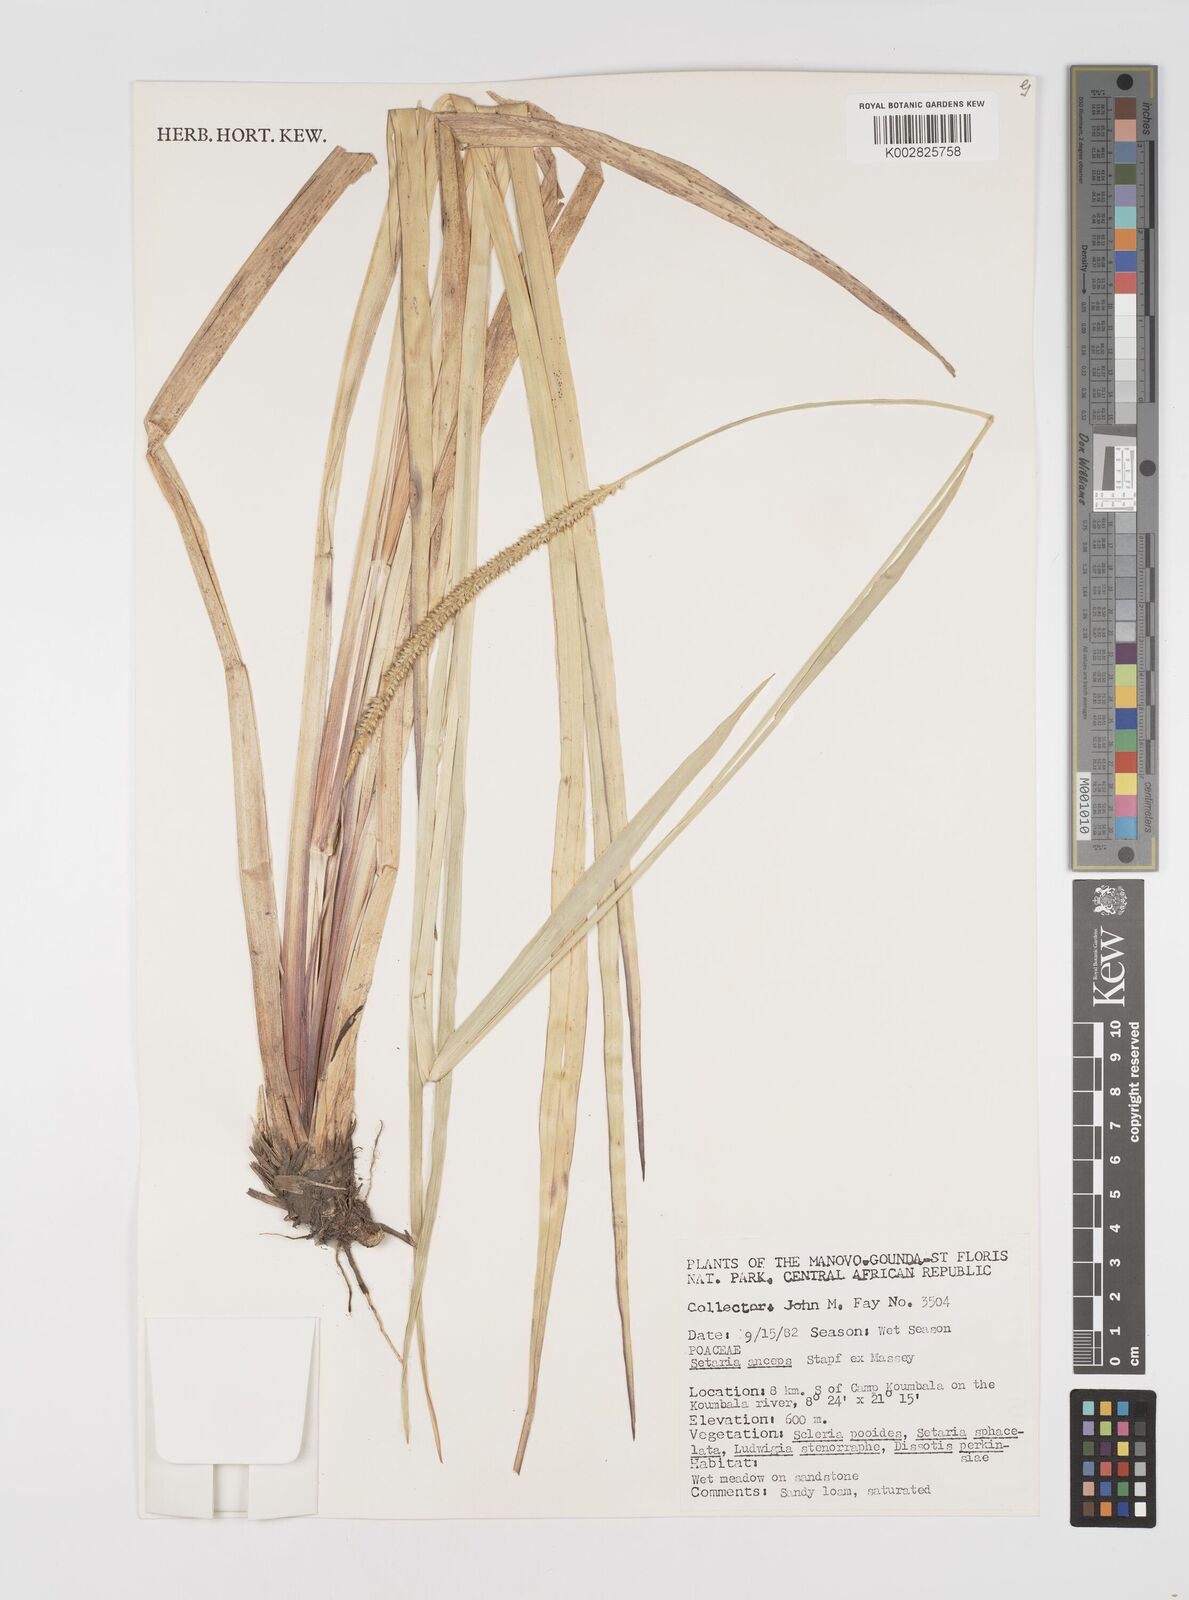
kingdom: Plantae
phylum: Tracheophyta
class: Liliopsida
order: Poales
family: Poaceae
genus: Setaria
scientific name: Setaria sphacelata
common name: African bristlegrass
